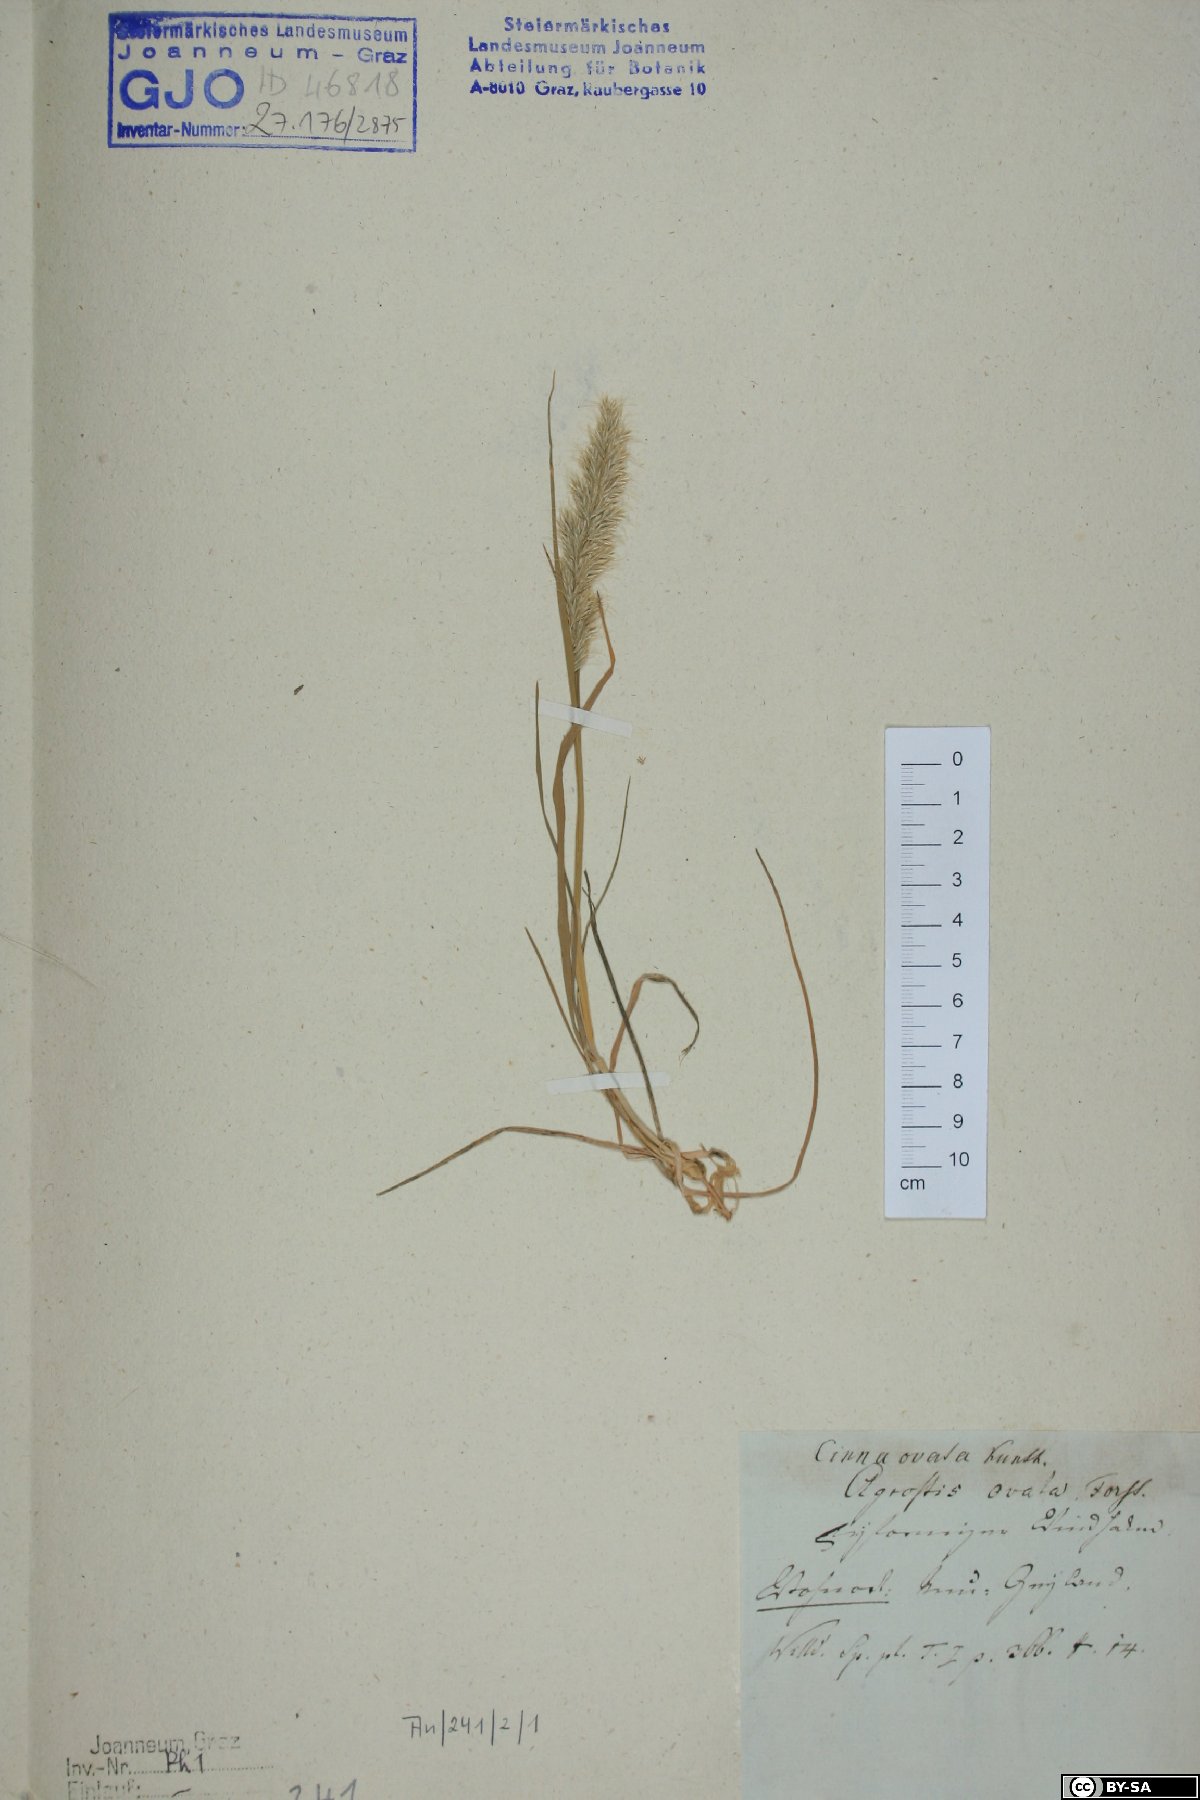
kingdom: Plantae
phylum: Tracheophyta
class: Liliopsida
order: Poales
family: Poaceae
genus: Echinopogon
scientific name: Echinopogon ovatus
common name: Hedgehog-grass
